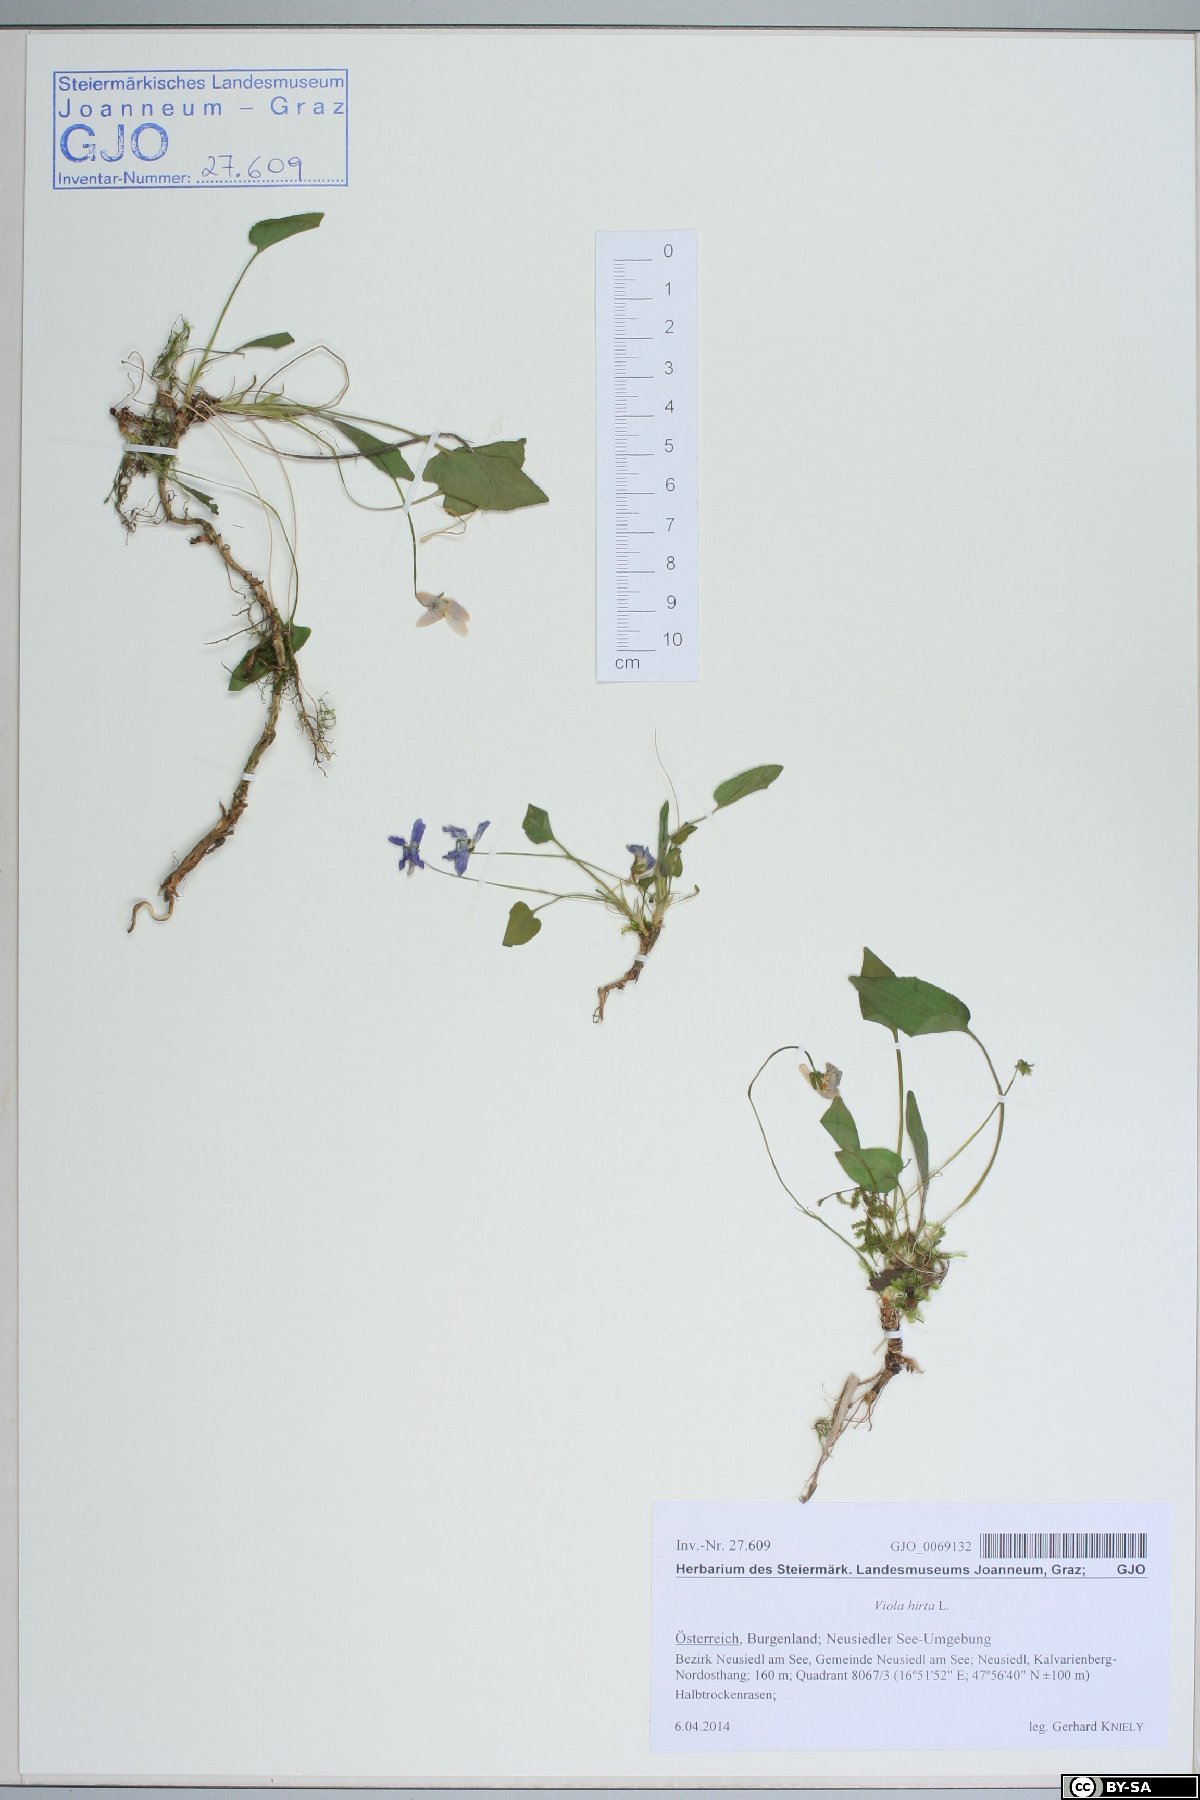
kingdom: Plantae
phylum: Tracheophyta
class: Magnoliopsida
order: Malpighiales
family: Violaceae
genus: Viola
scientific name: Viola hirta
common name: Hairy violet
